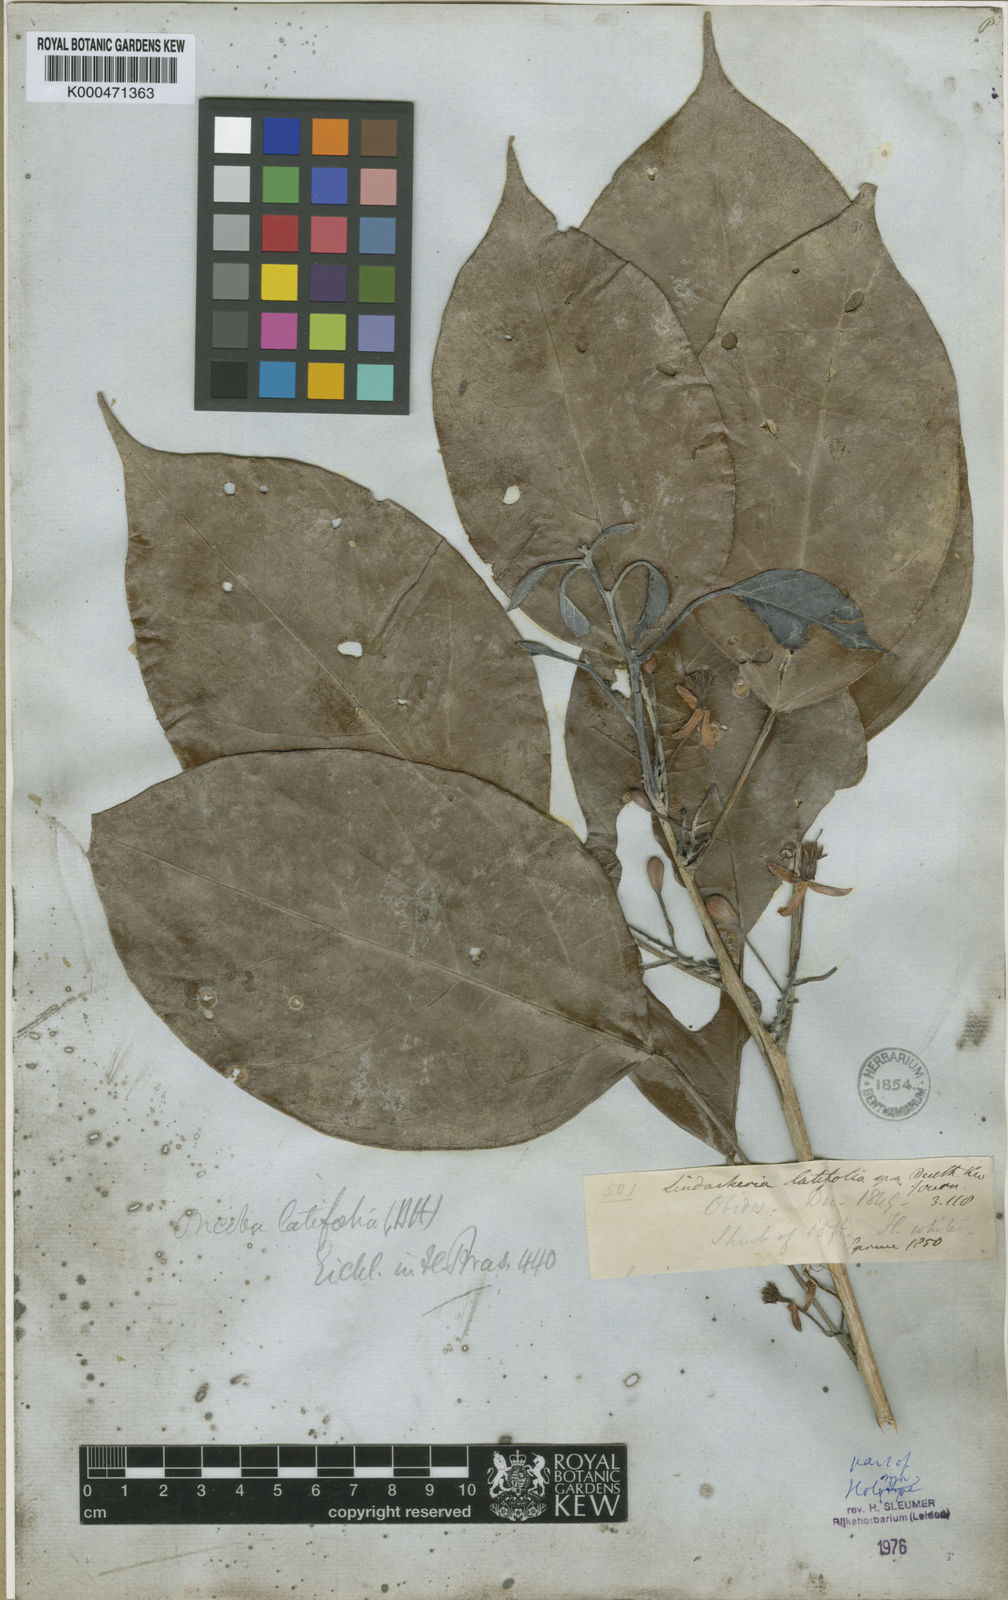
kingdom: Plantae
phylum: Tracheophyta
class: Magnoliopsida
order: Malpighiales
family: Achariaceae
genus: Lindackeria
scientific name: Lindackeria latifolia
